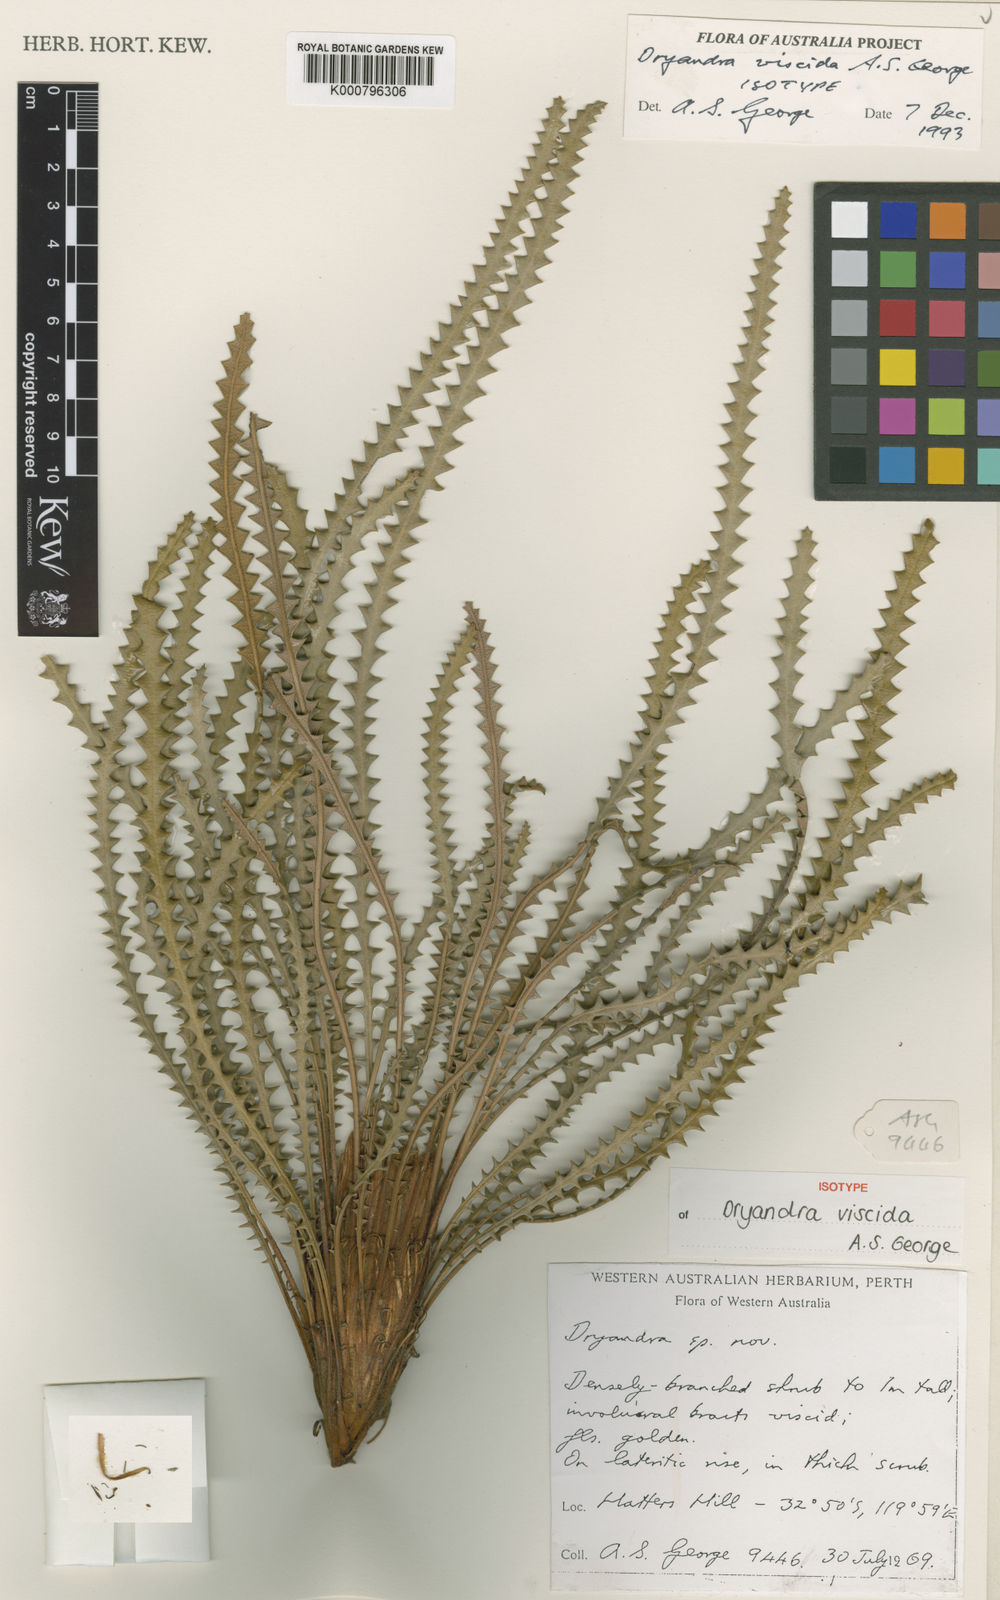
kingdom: Plantae
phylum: Tracheophyta
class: Magnoliopsida
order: Proteales
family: Proteaceae
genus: Banksia
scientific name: Banksia viscida
